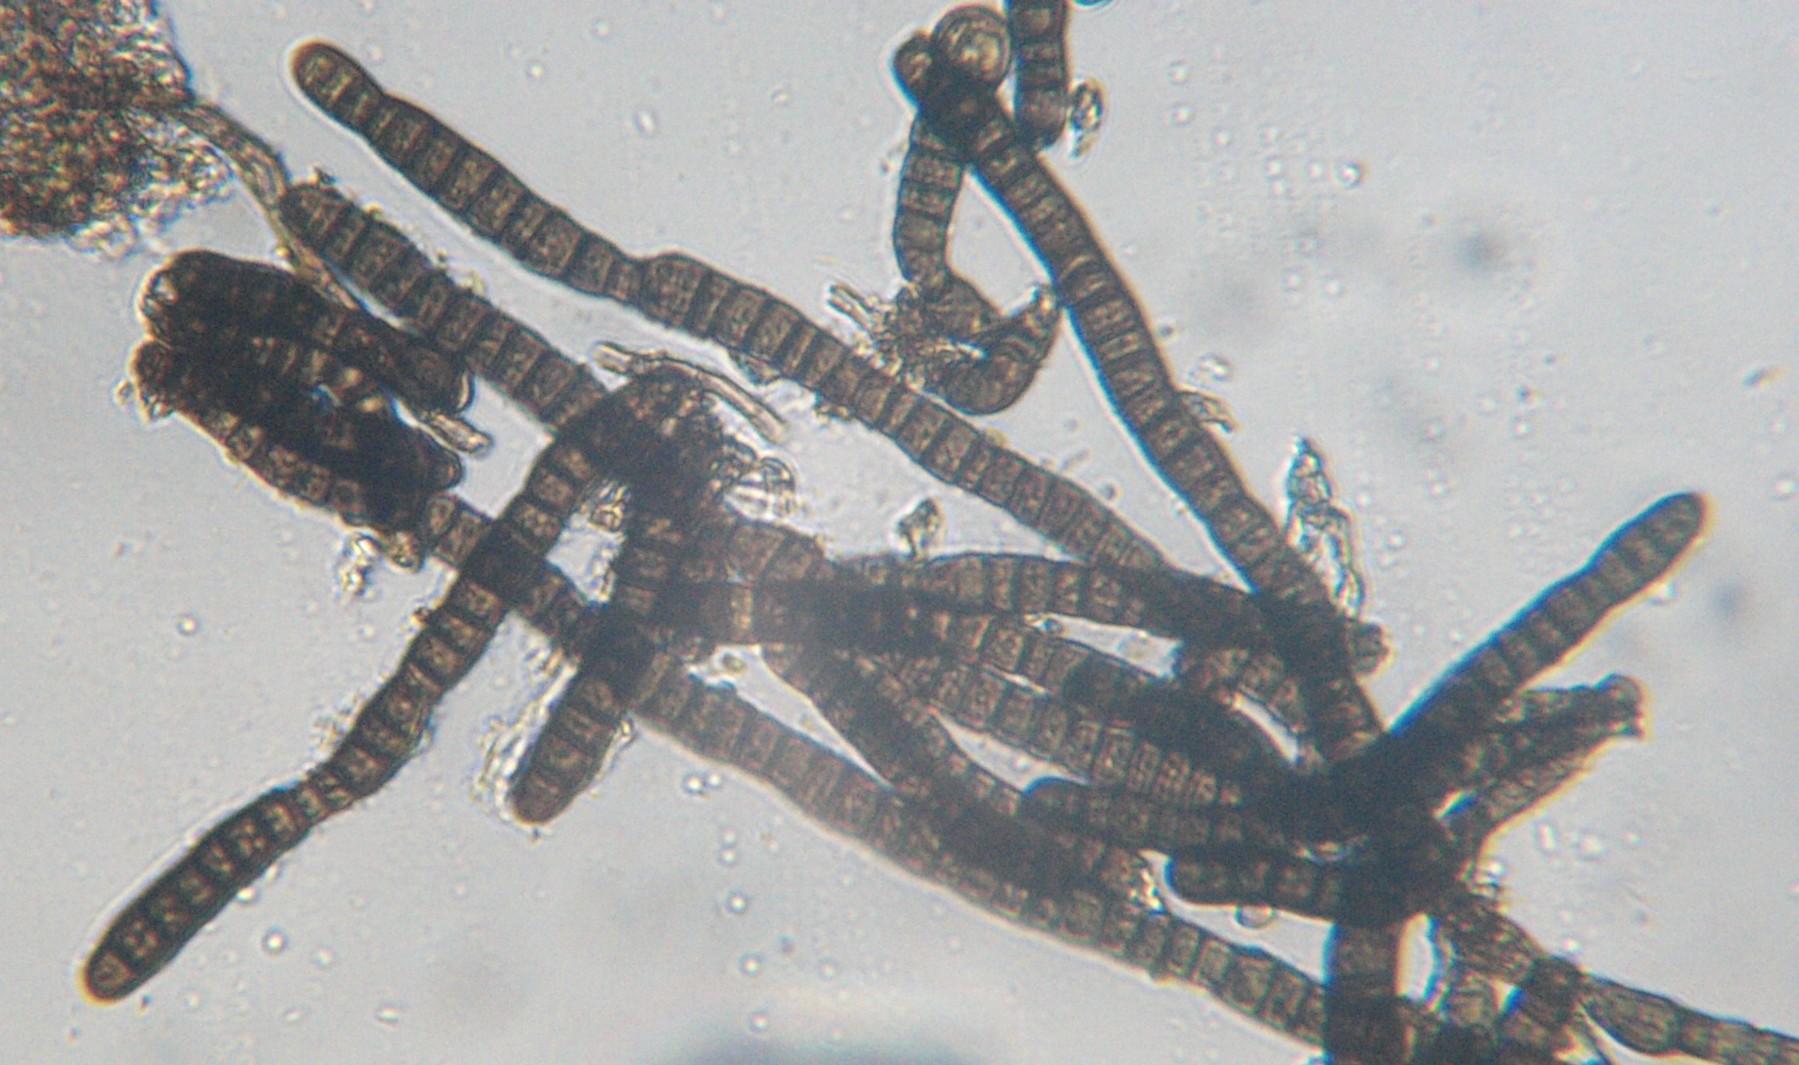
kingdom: Fungi
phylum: Ascomycota
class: Dothideomycetes
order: Mytilinidiales
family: Mytilinidiaceae
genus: Taeniolella
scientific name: Taeniolella stilbospora
